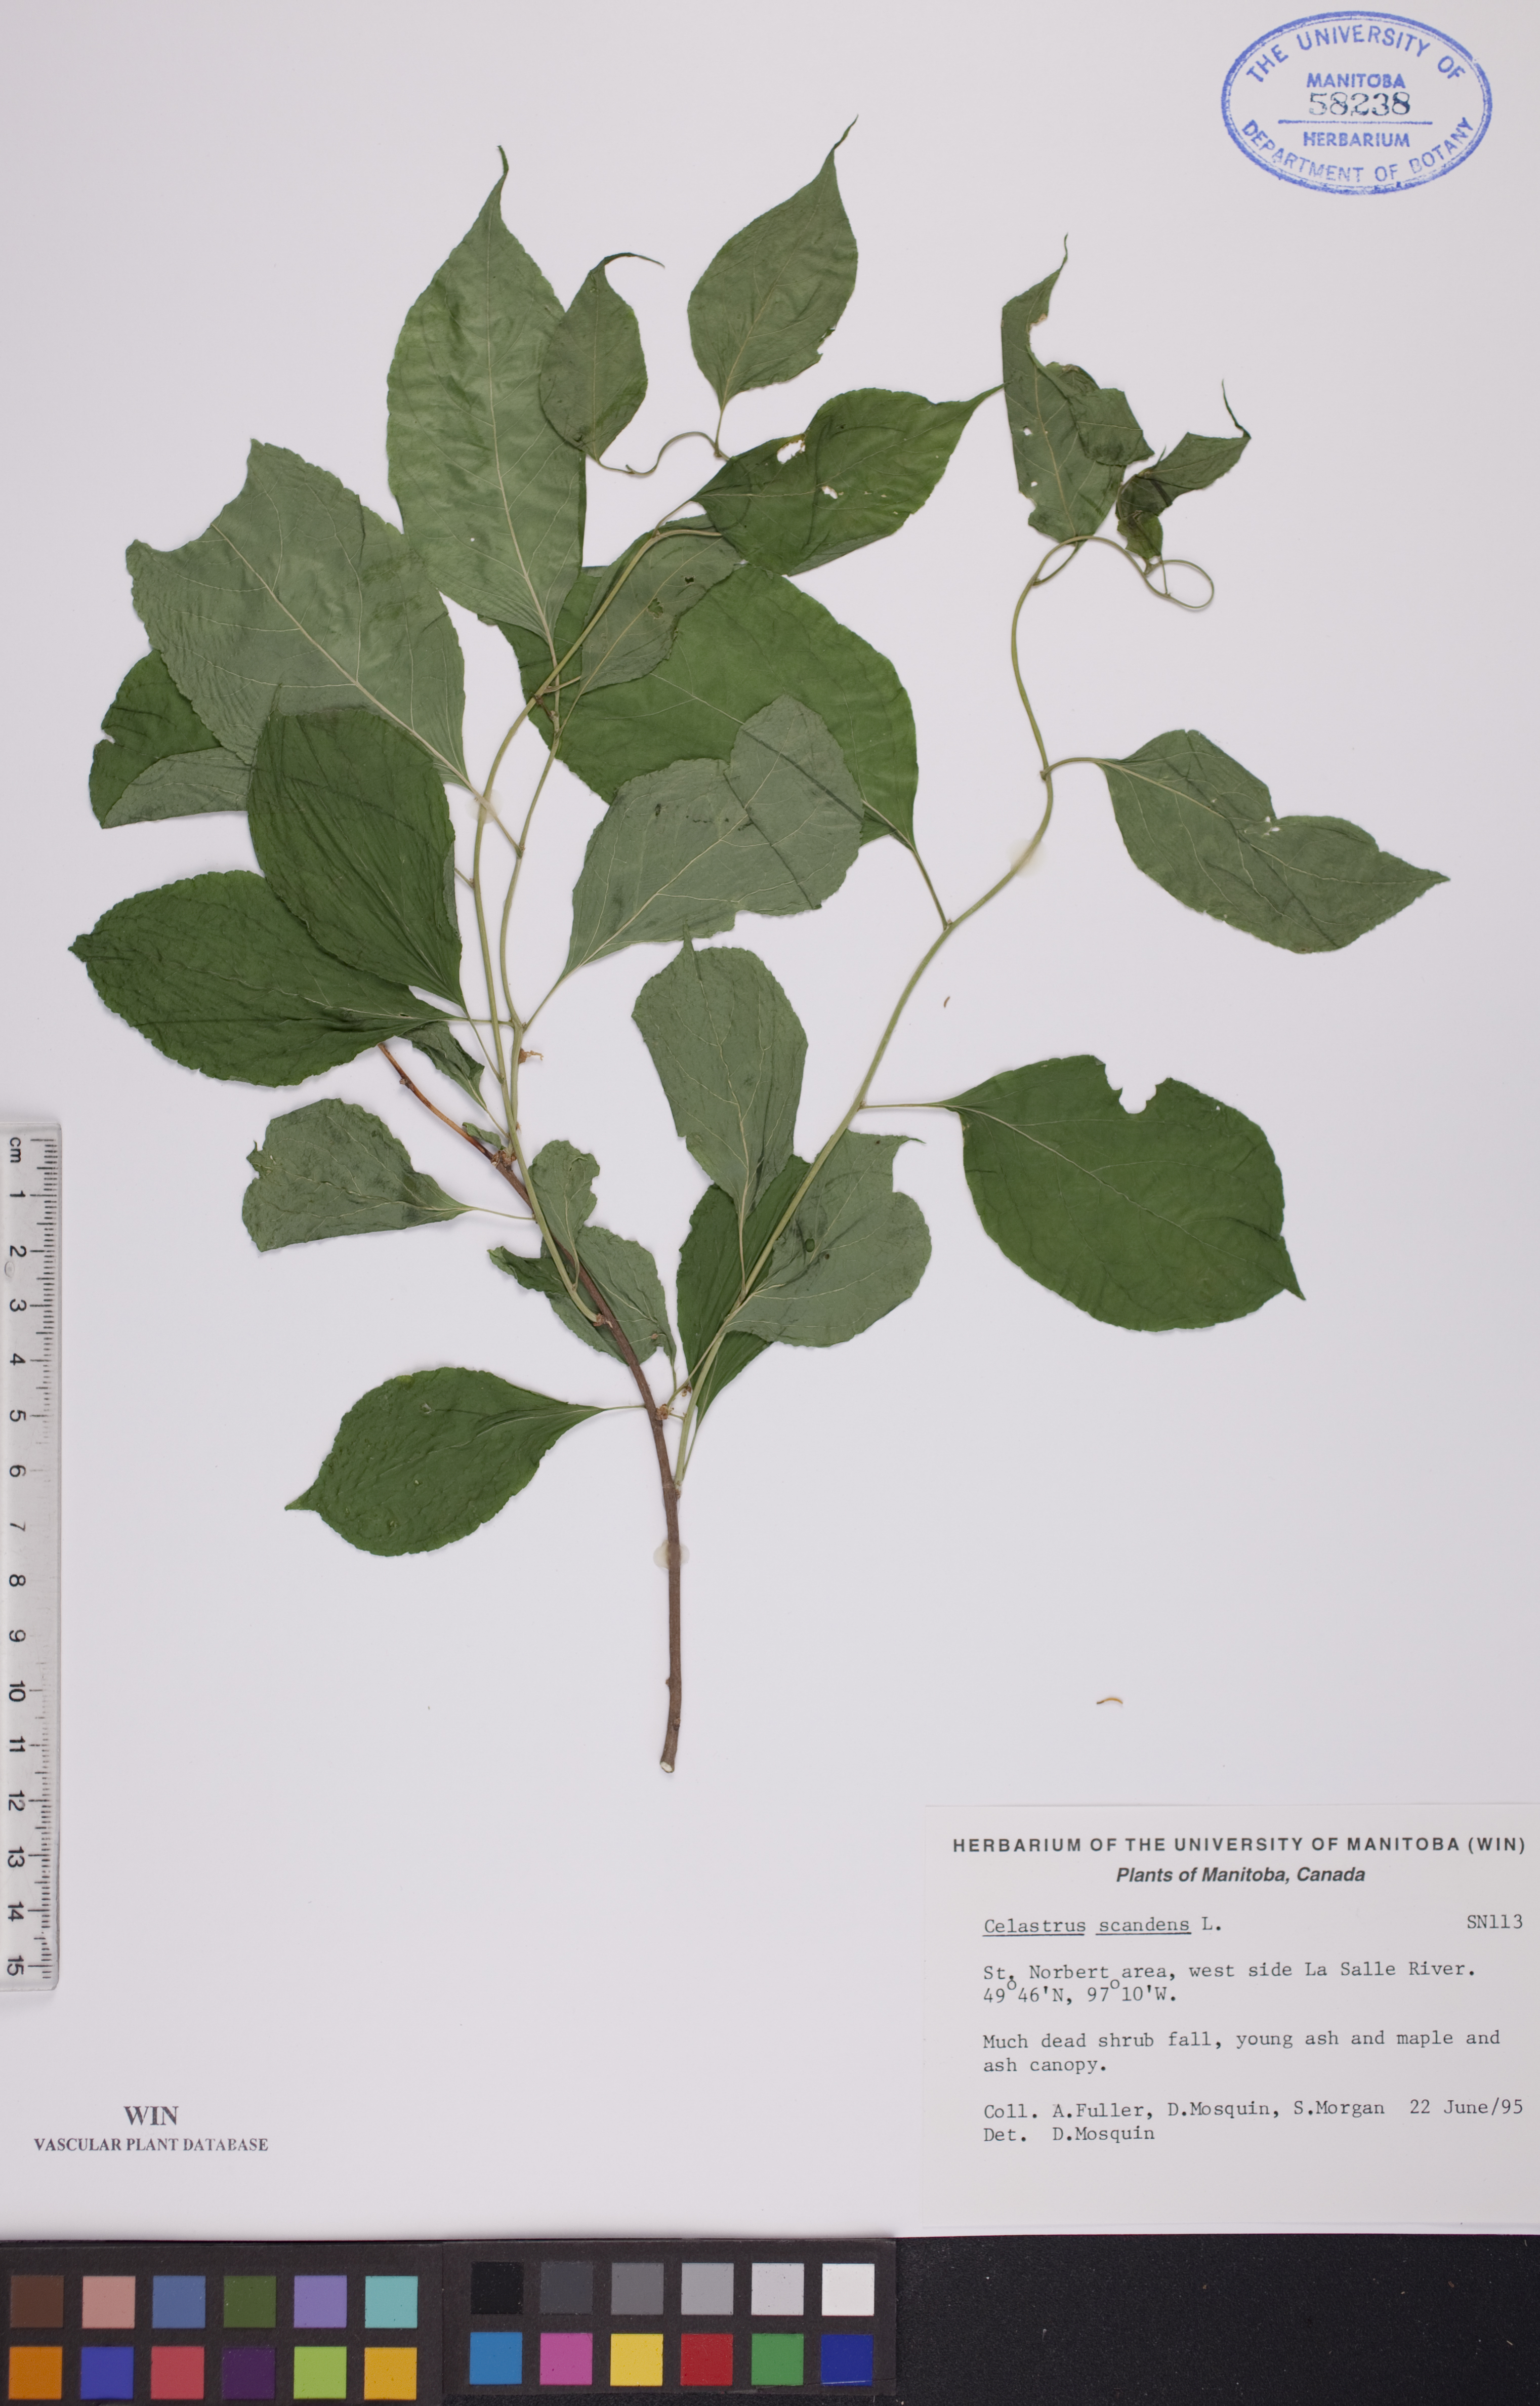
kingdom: Plantae
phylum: Tracheophyta
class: Magnoliopsida
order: Celastrales
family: Celastraceae
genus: Celastrus
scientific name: Celastrus scandens
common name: American bittersweet
